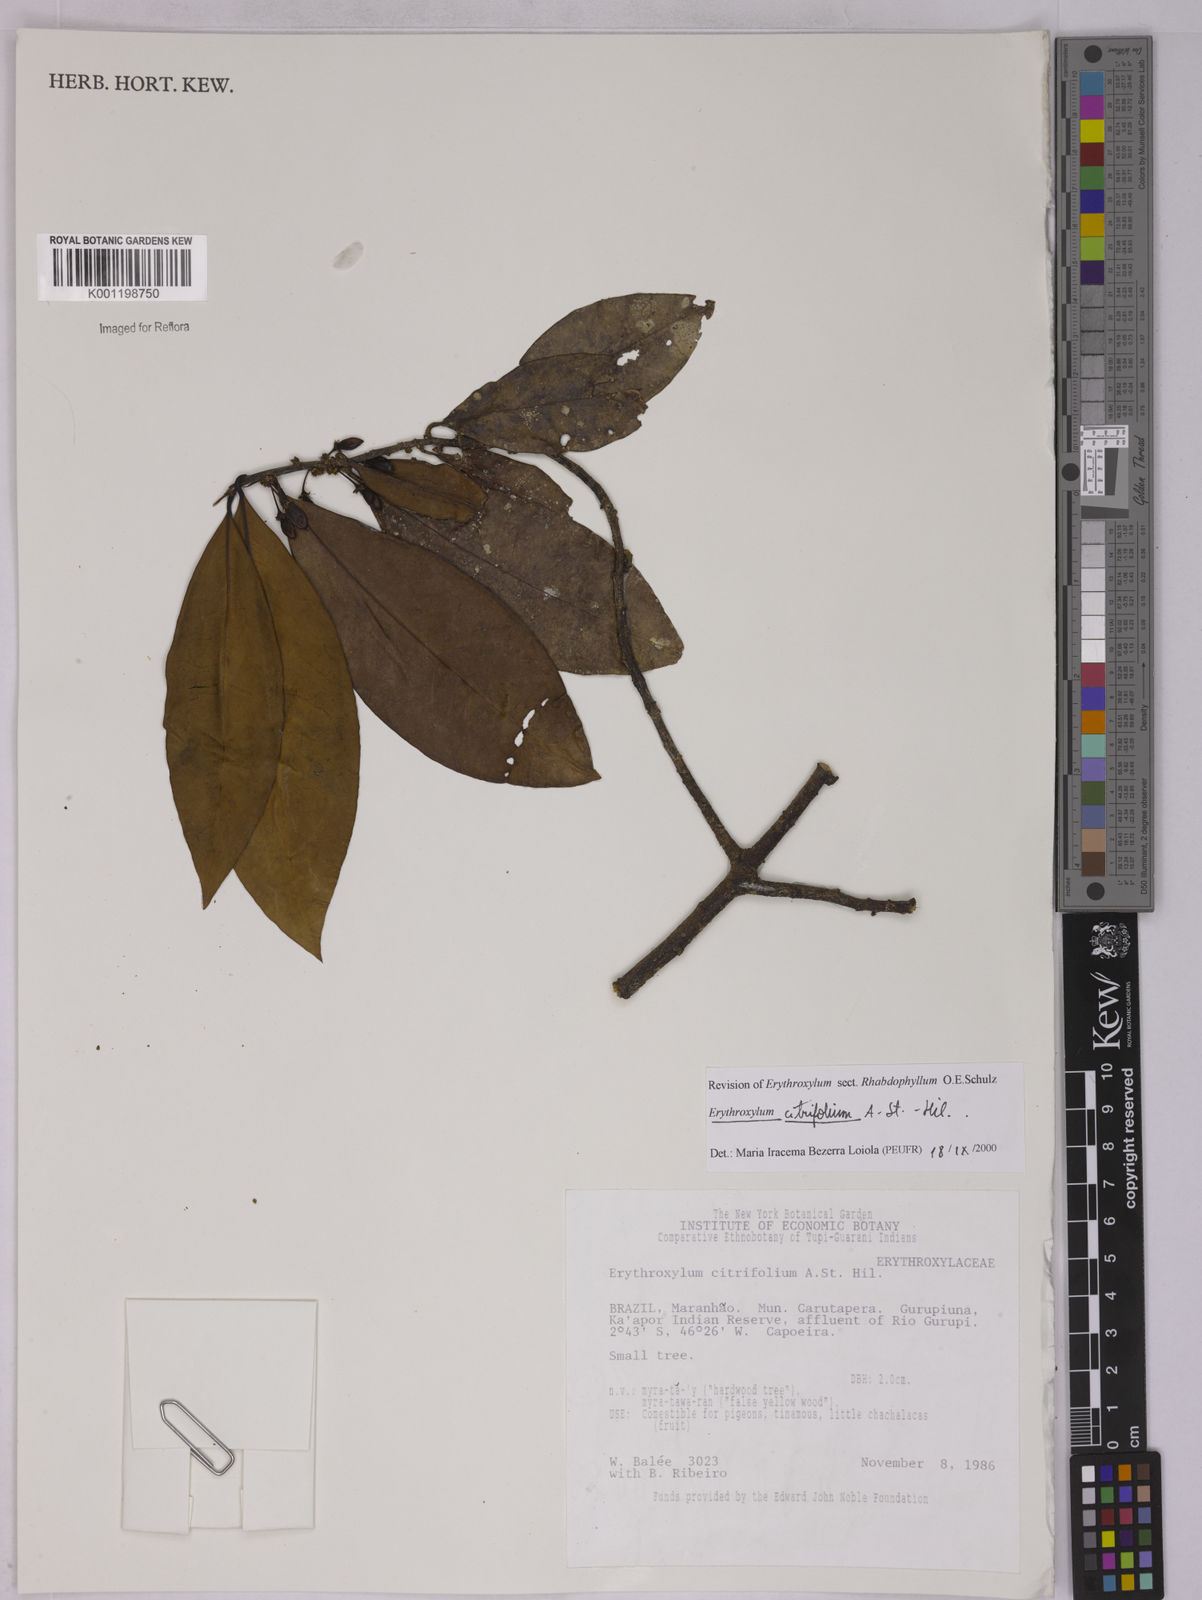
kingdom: Plantae
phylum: Tracheophyta
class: Magnoliopsida
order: Malpighiales
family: Erythroxylaceae
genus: Erythroxylum
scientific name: Erythroxylum citrifolium
